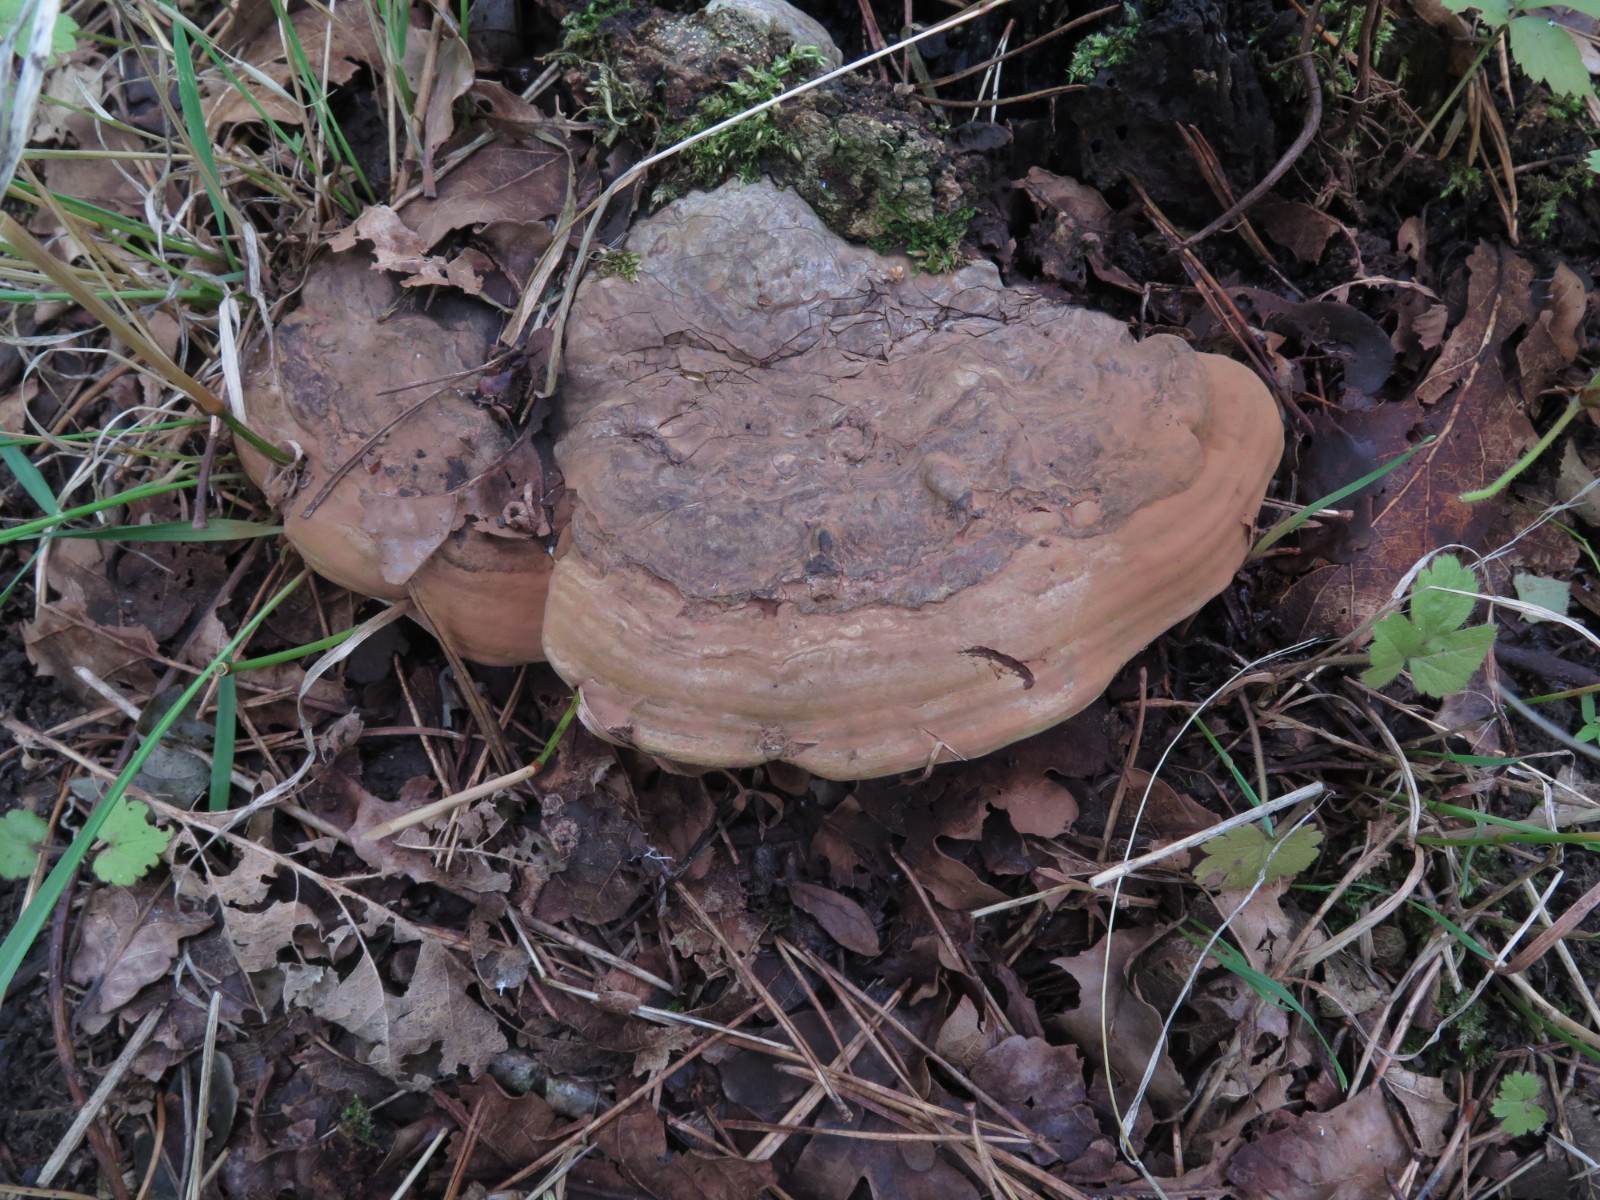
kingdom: Fungi
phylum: Basidiomycota
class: Agaricomycetes
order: Polyporales
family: Polyporaceae
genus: Ganoderma
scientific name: Ganoderma applanatum
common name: flad lakporesvamp
